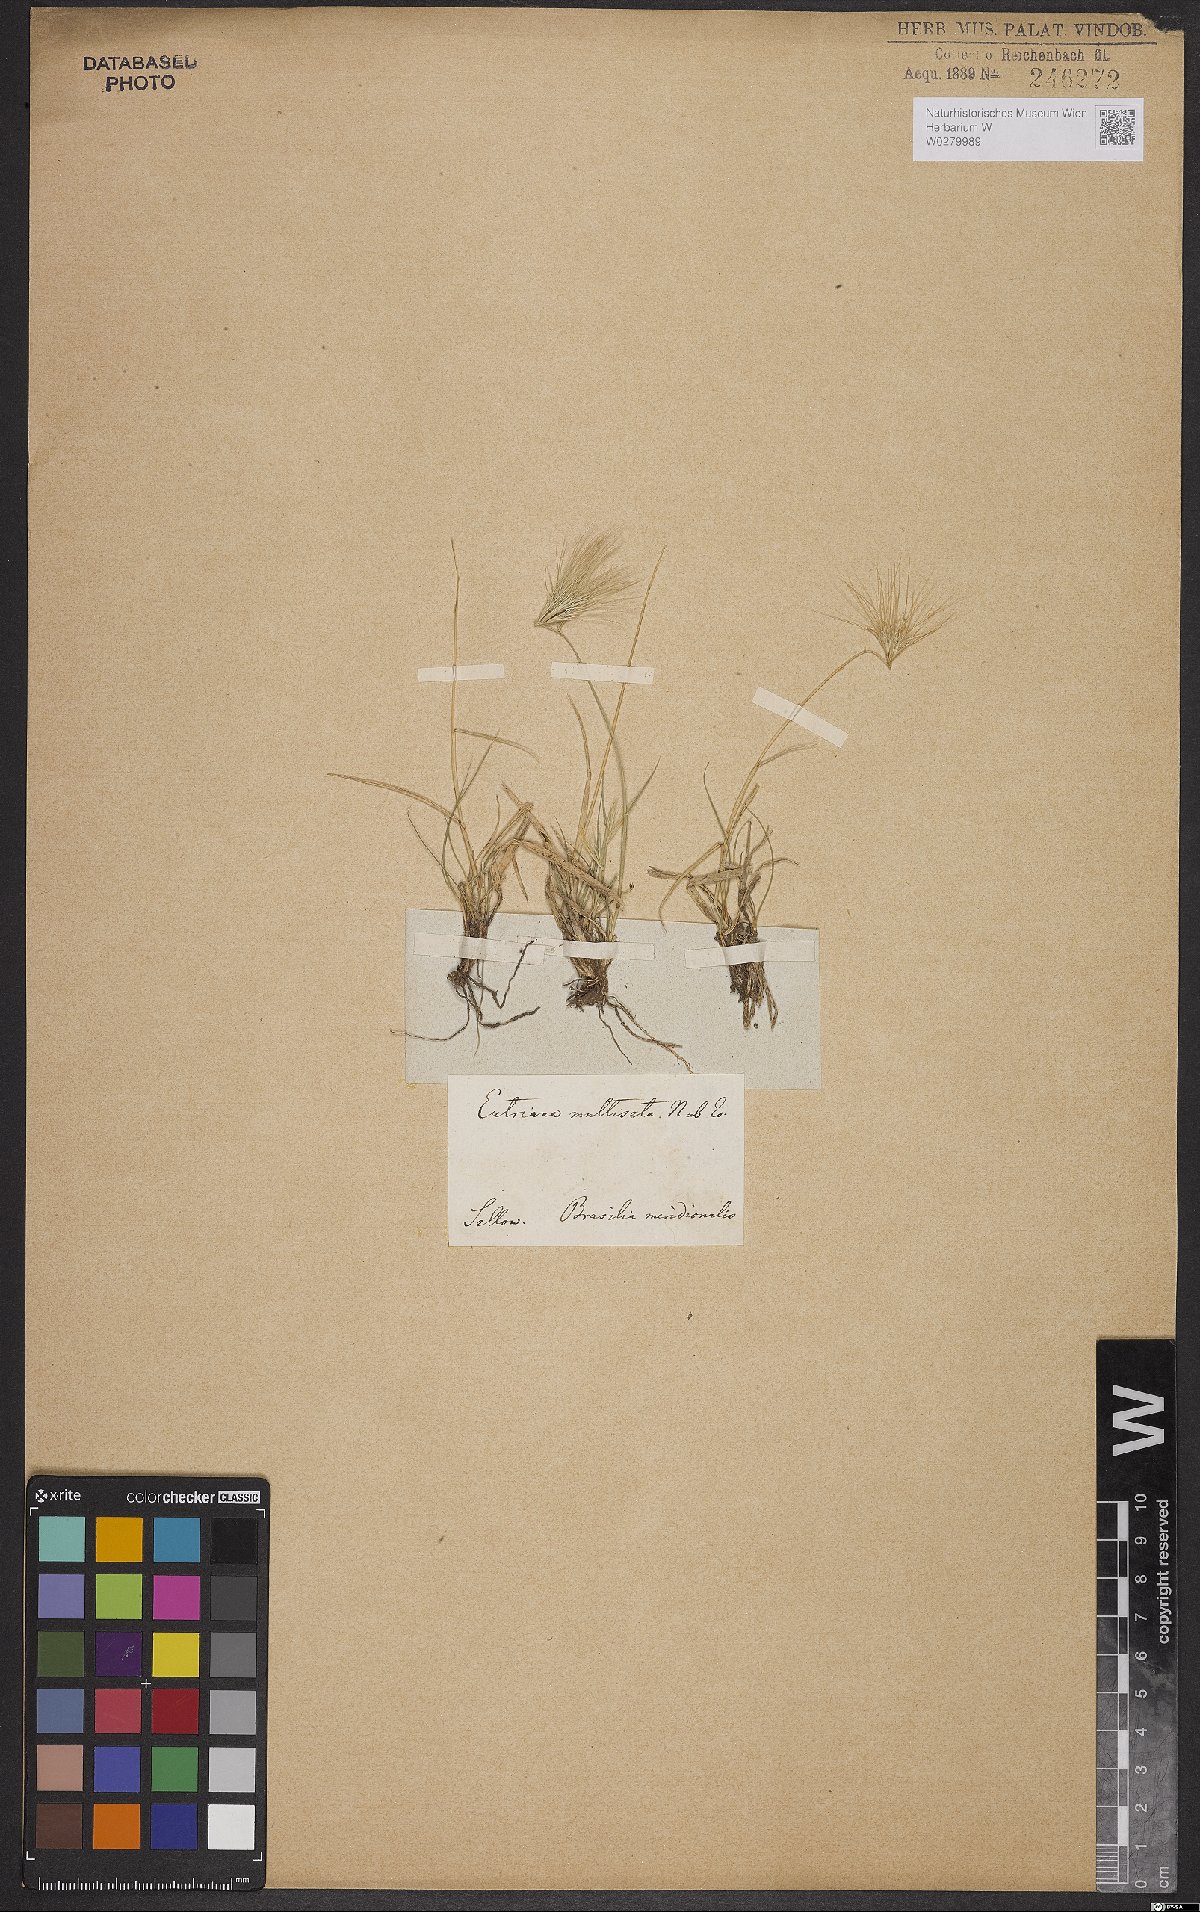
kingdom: Plantae
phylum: Tracheophyta
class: Liliopsida
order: Poales
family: Poaceae
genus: Bouteloua
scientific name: Bouteloua megapotamica
